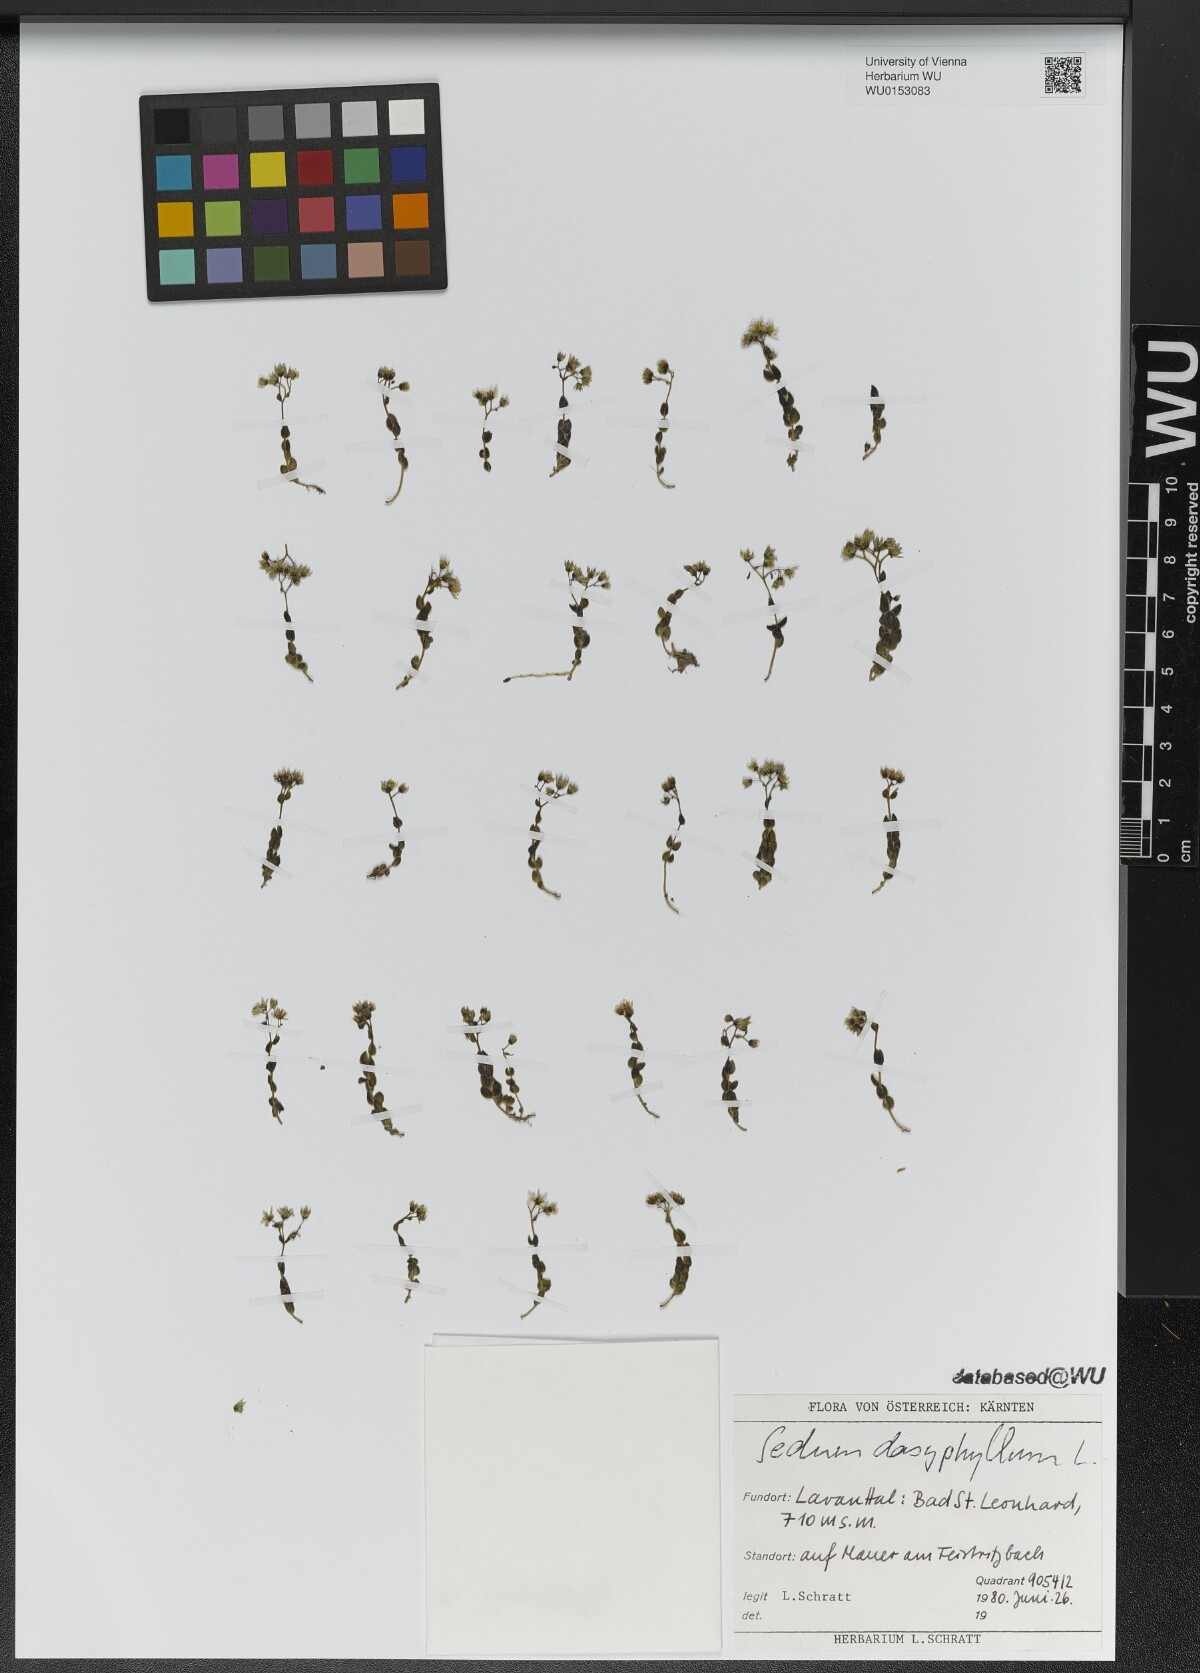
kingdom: Plantae
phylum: Tracheophyta
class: Magnoliopsida
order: Saxifragales
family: Crassulaceae
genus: Sedum
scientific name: Sedum dasyphyllum
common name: Thick-leaf stonecrop
